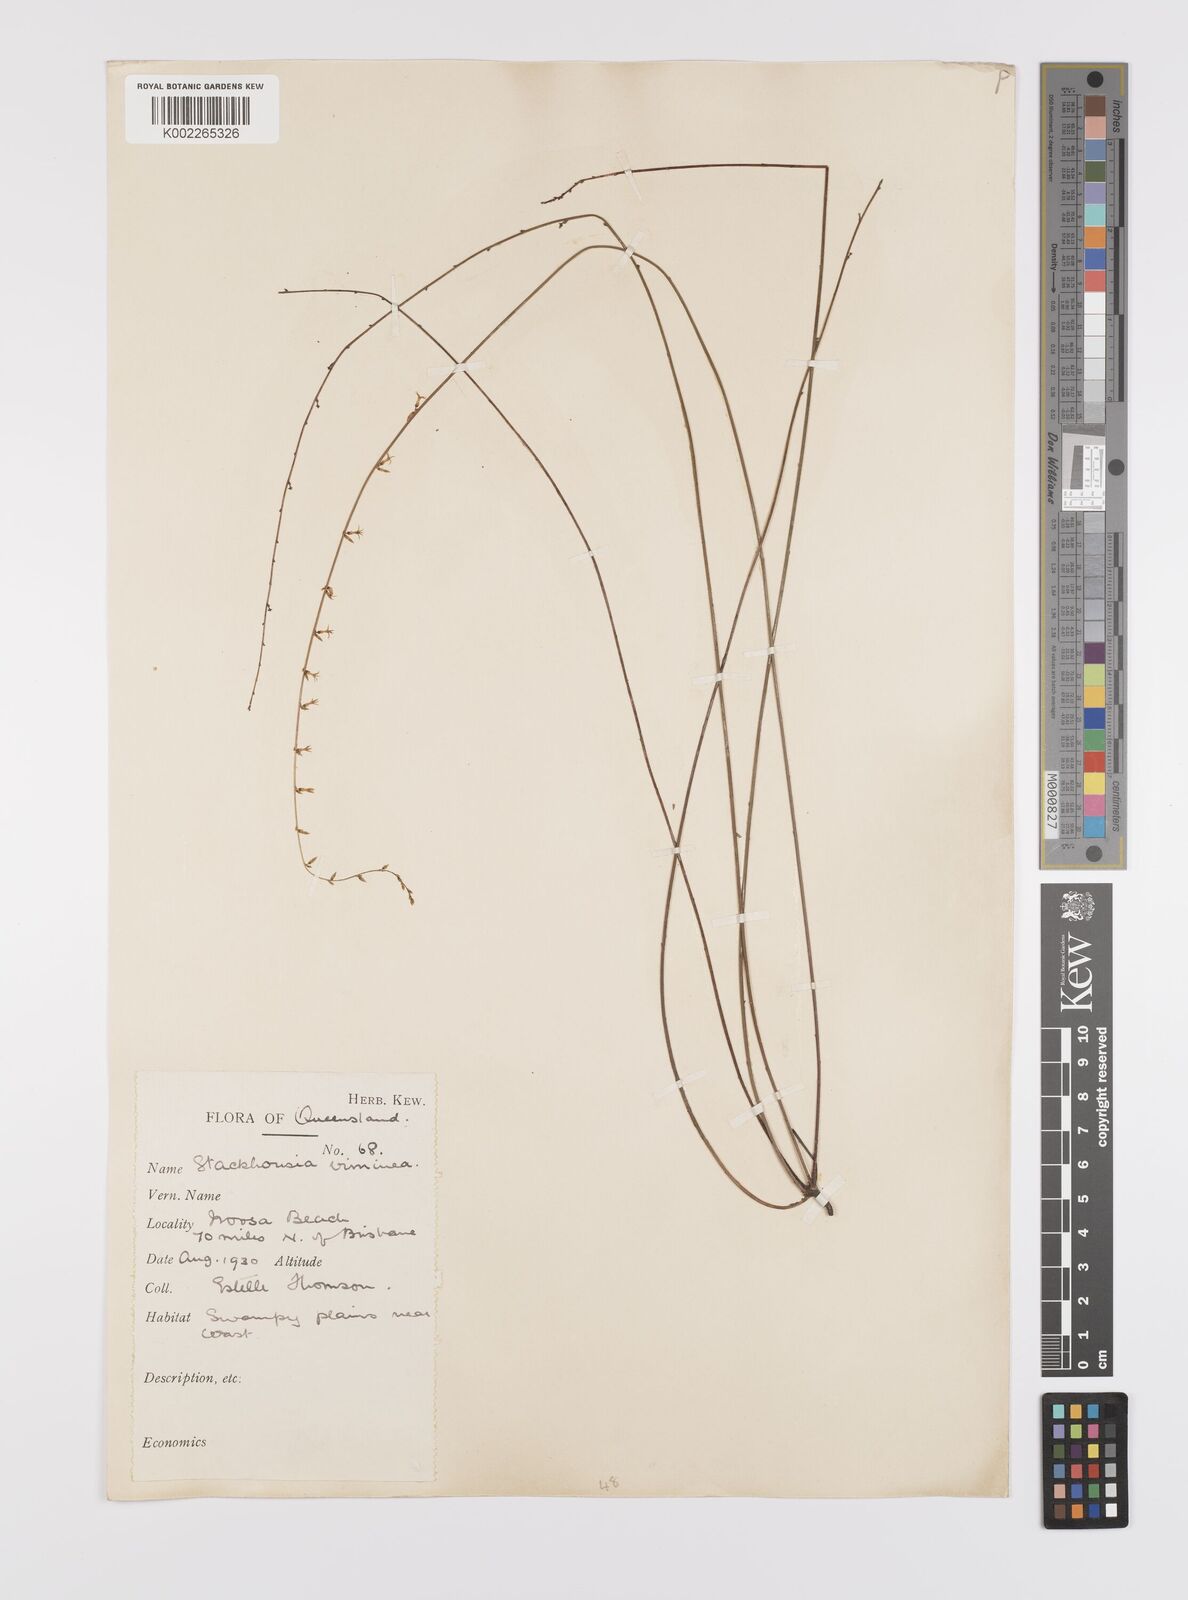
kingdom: Plantae
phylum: Tracheophyta
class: Magnoliopsida
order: Celastrales
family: Celastraceae
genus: Stackhousia
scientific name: Stackhousia viminea
